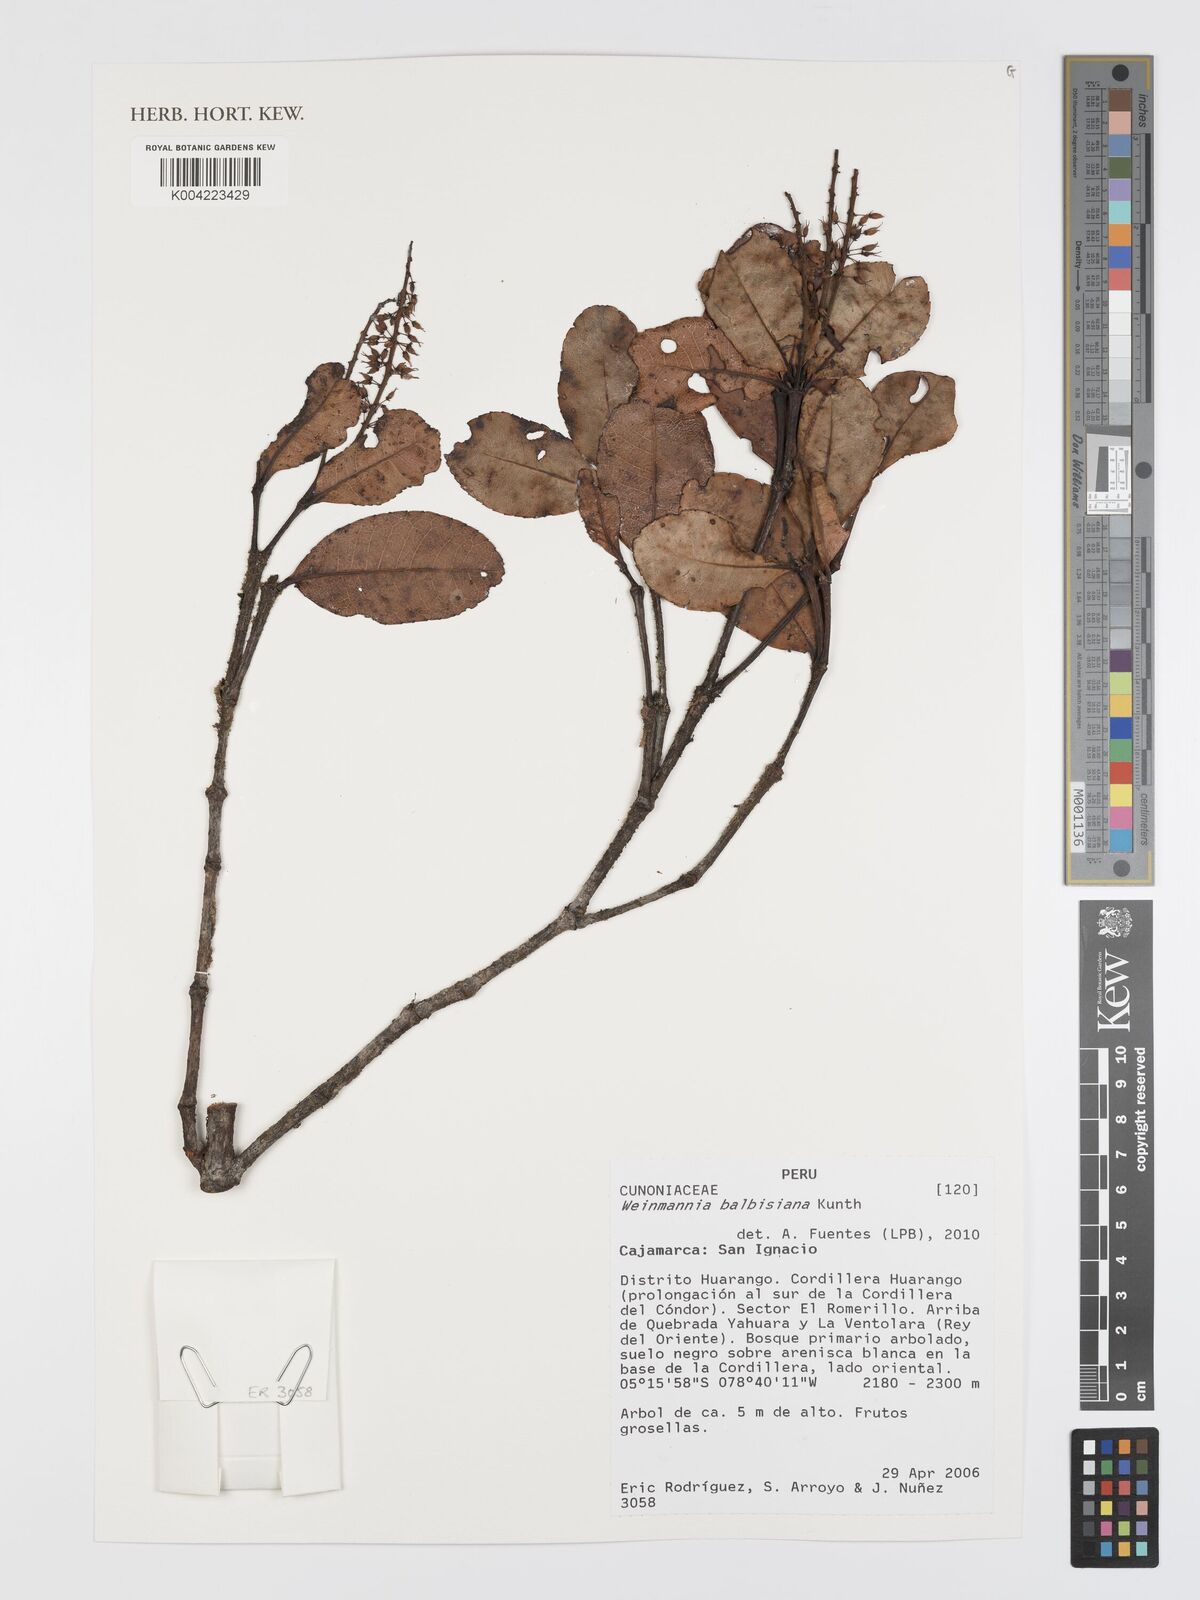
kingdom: Plantae
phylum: Tracheophyta
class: Magnoliopsida
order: Oxalidales
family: Cunoniaceae
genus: Weinmannia
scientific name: Weinmannia balbisana
